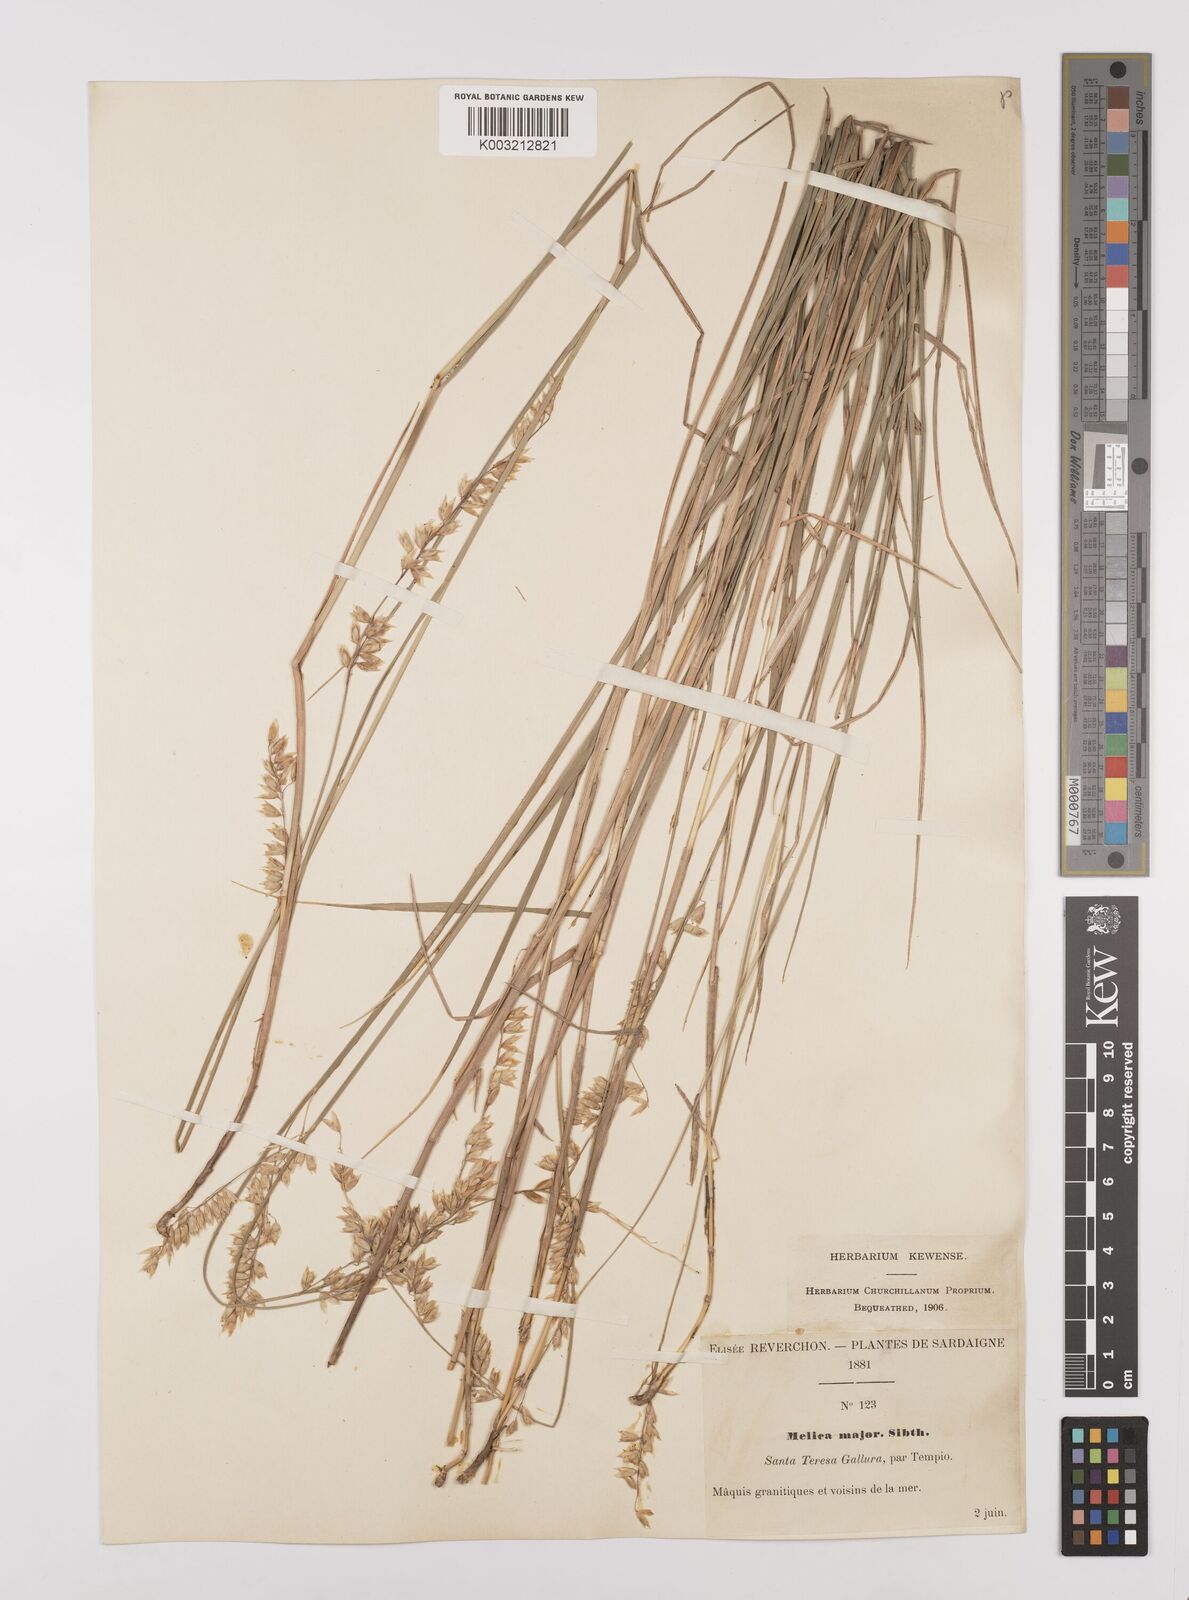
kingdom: Plantae
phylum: Tracheophyta
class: Liliopsida
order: Poales
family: Poaceae
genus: Melica
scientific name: Melica minuta
